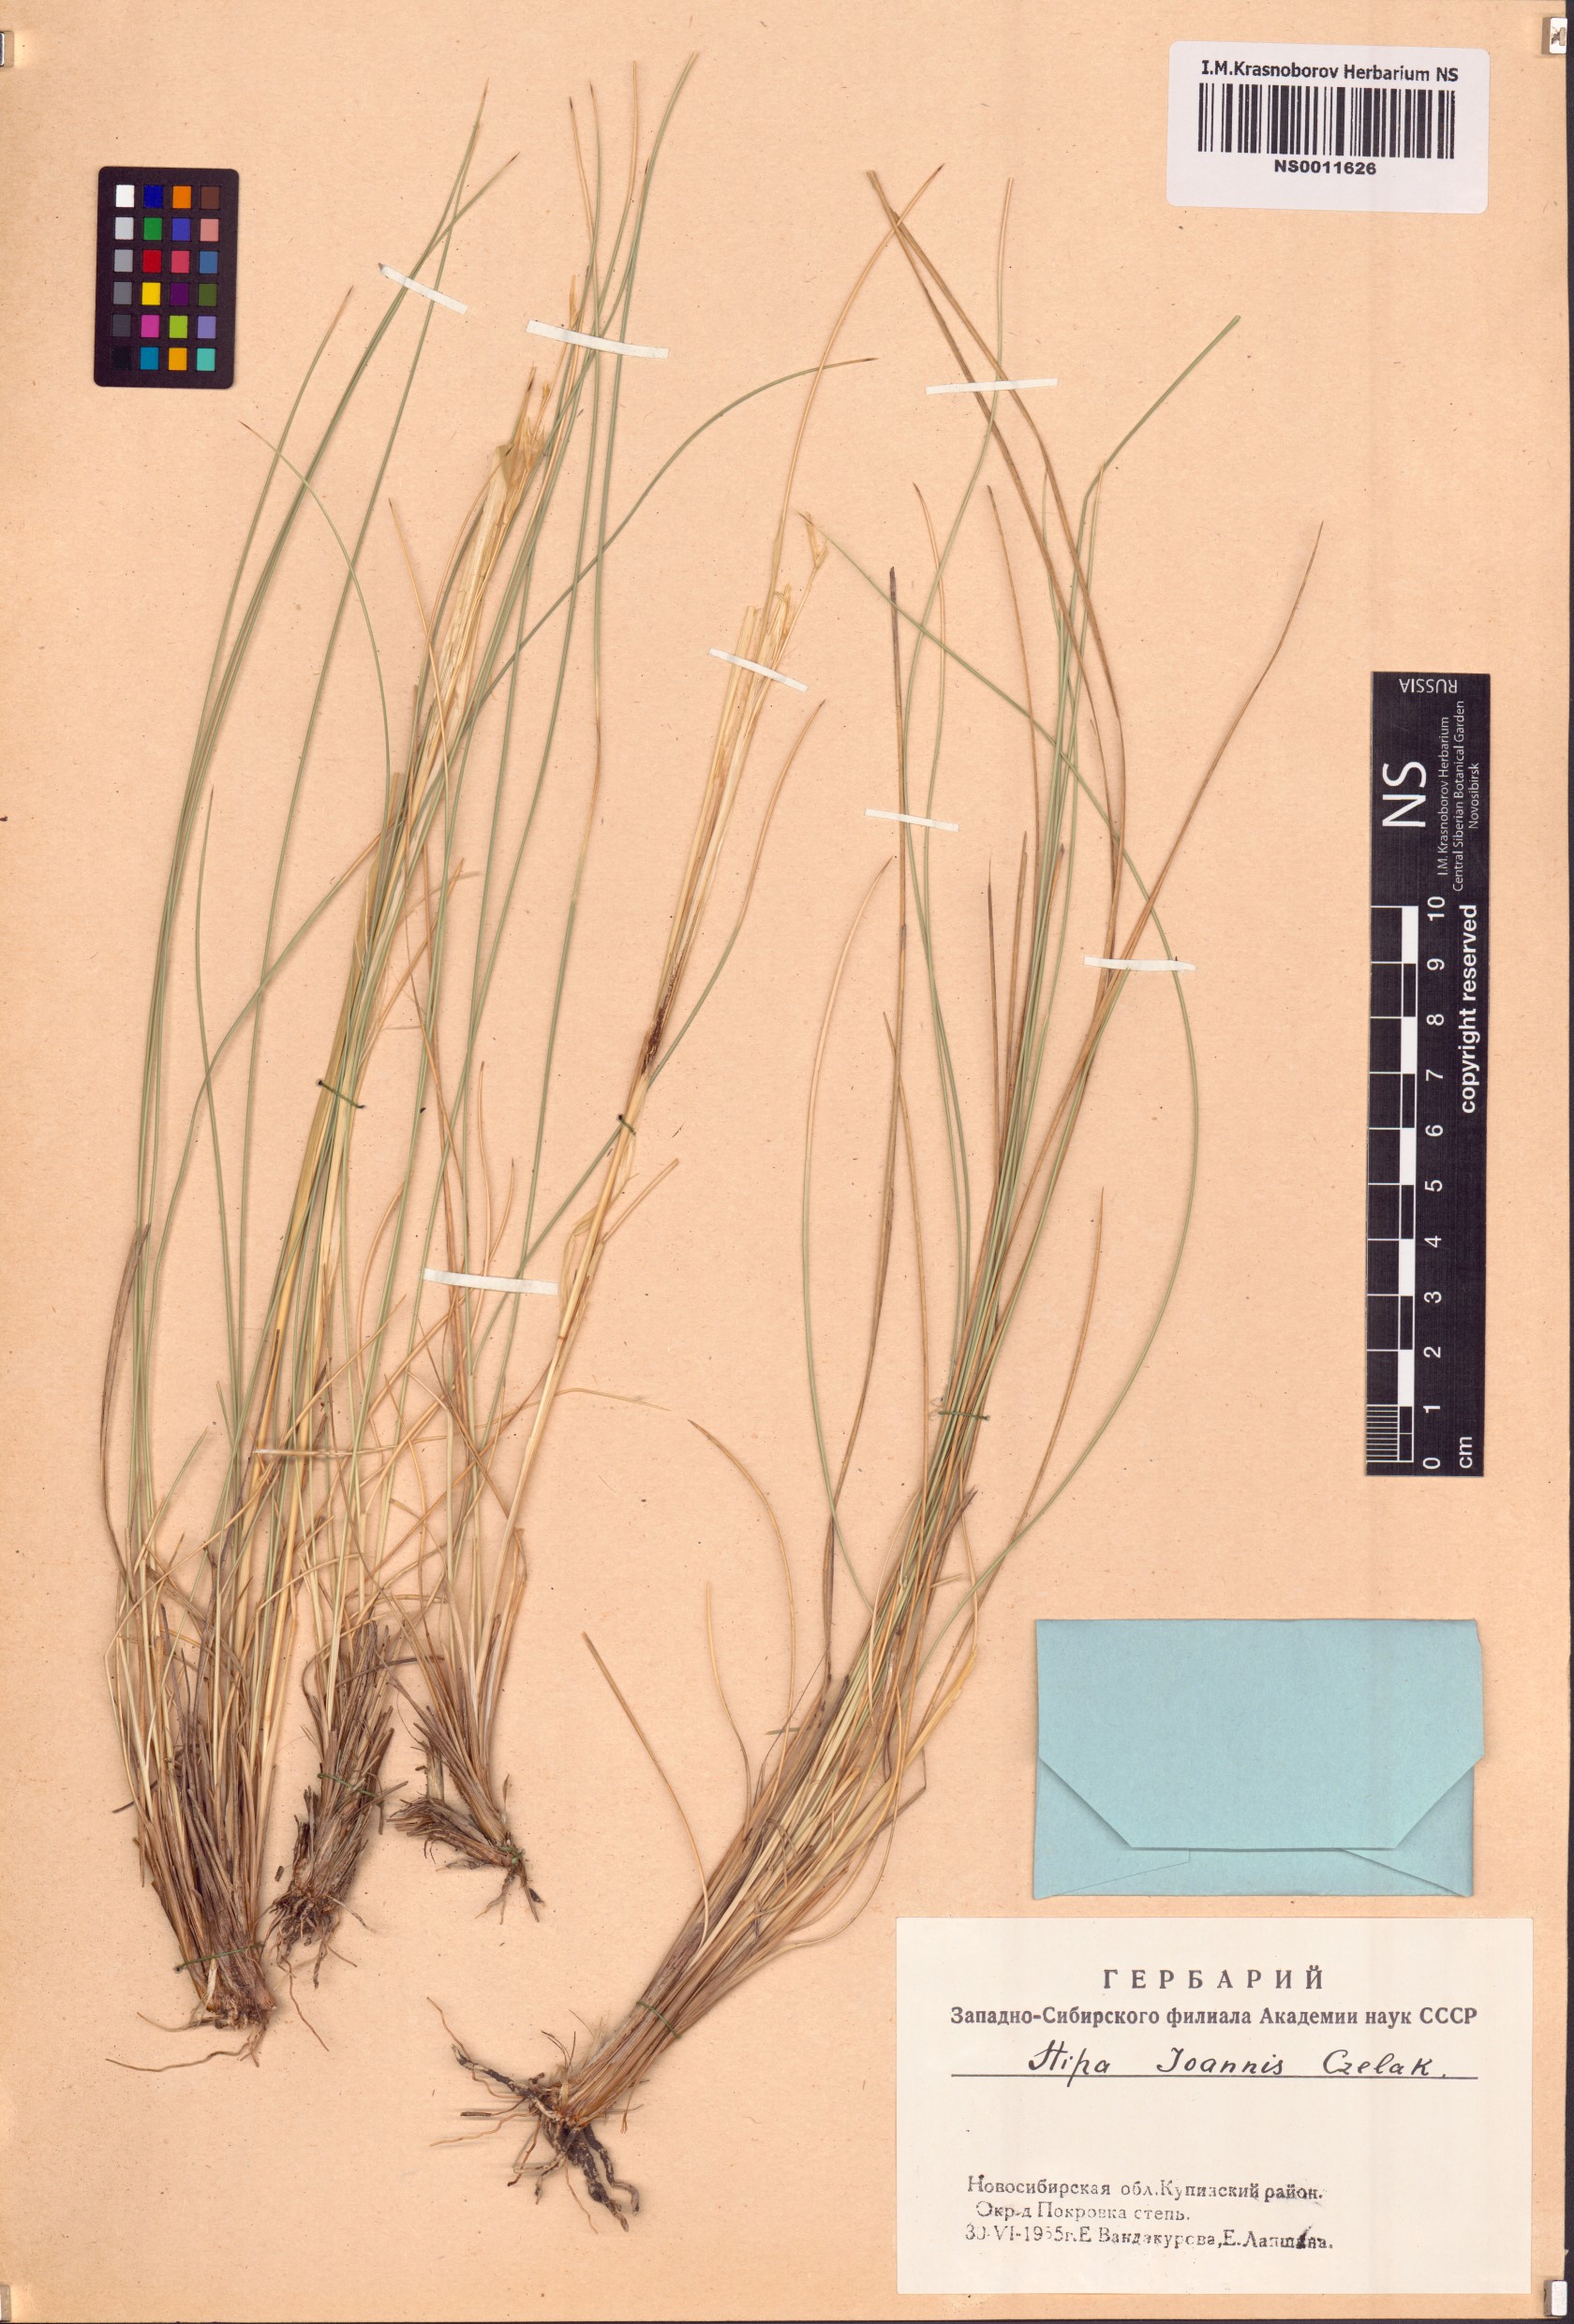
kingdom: Plantae
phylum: Tracheophyta
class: Liliopsida
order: Poales
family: Poaceae
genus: Stipa
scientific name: Stipa pennata
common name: European feather grass
